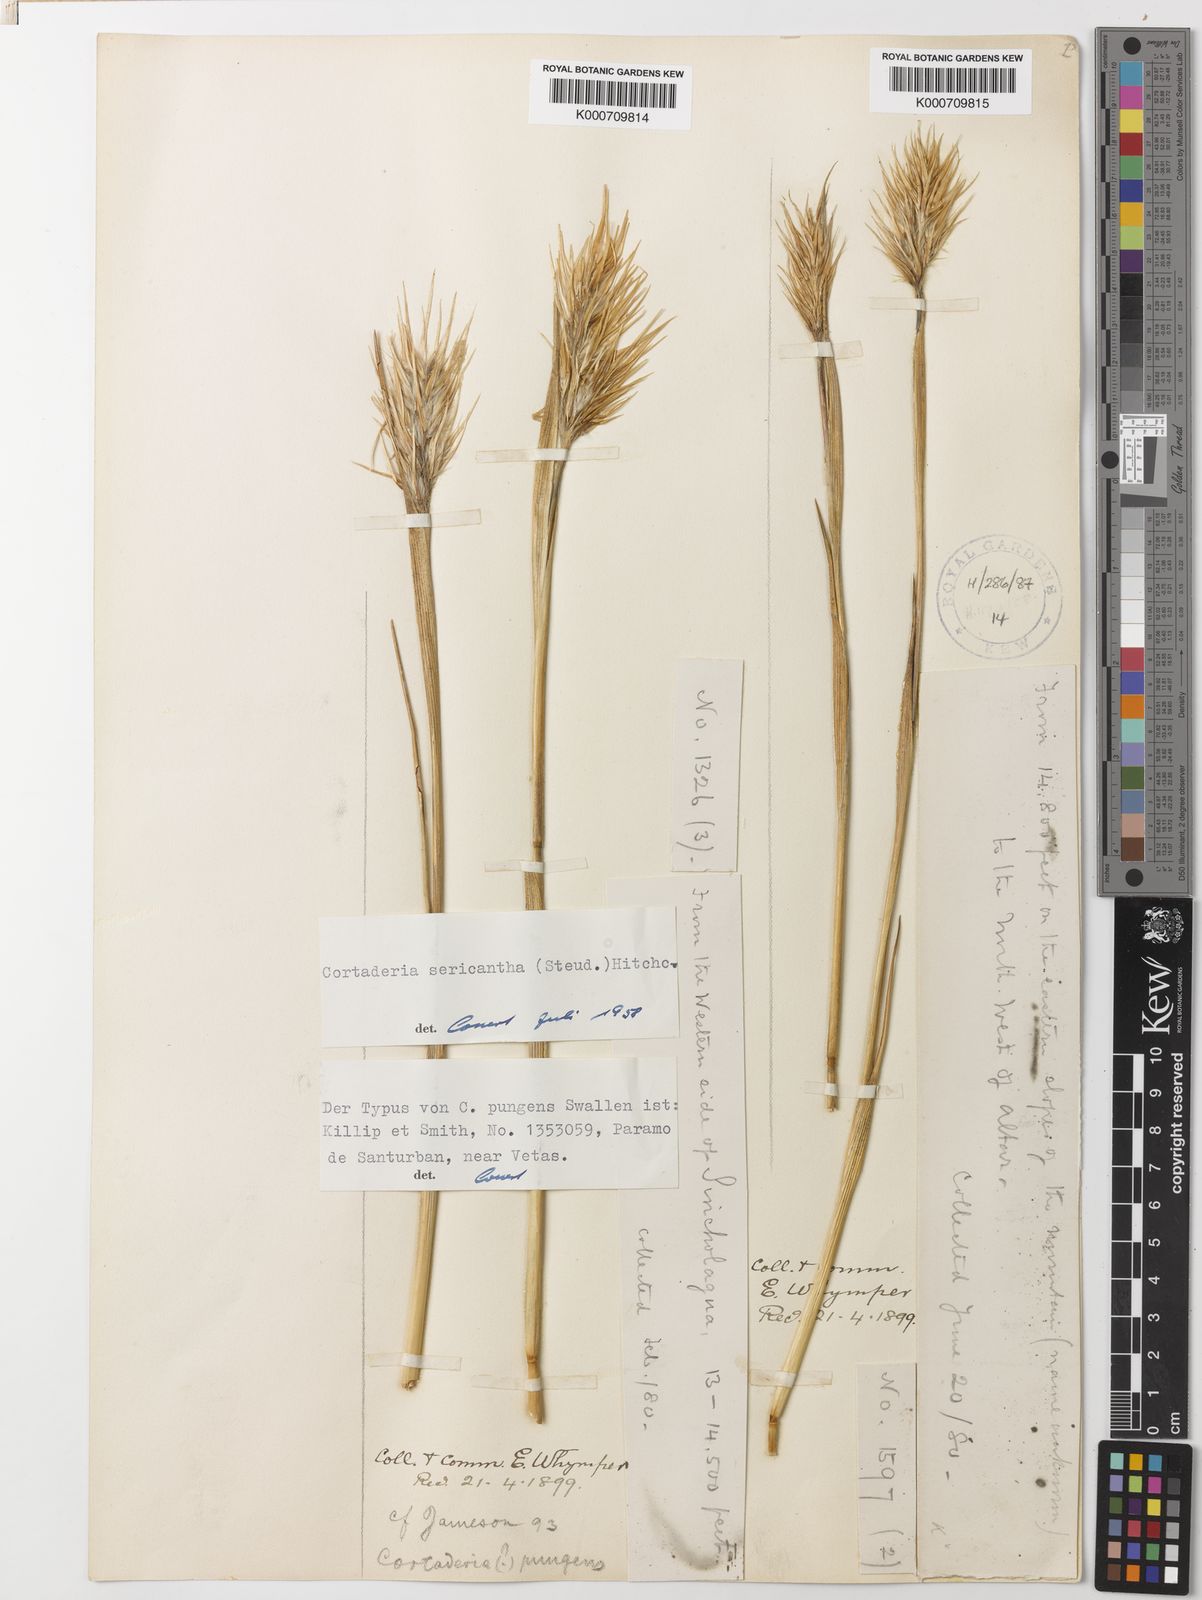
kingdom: Plantae
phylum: Tracheophyta
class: Liliopsida
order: Poales
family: Poaceae
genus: Cortaderia
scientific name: Cortaderia sericantha
